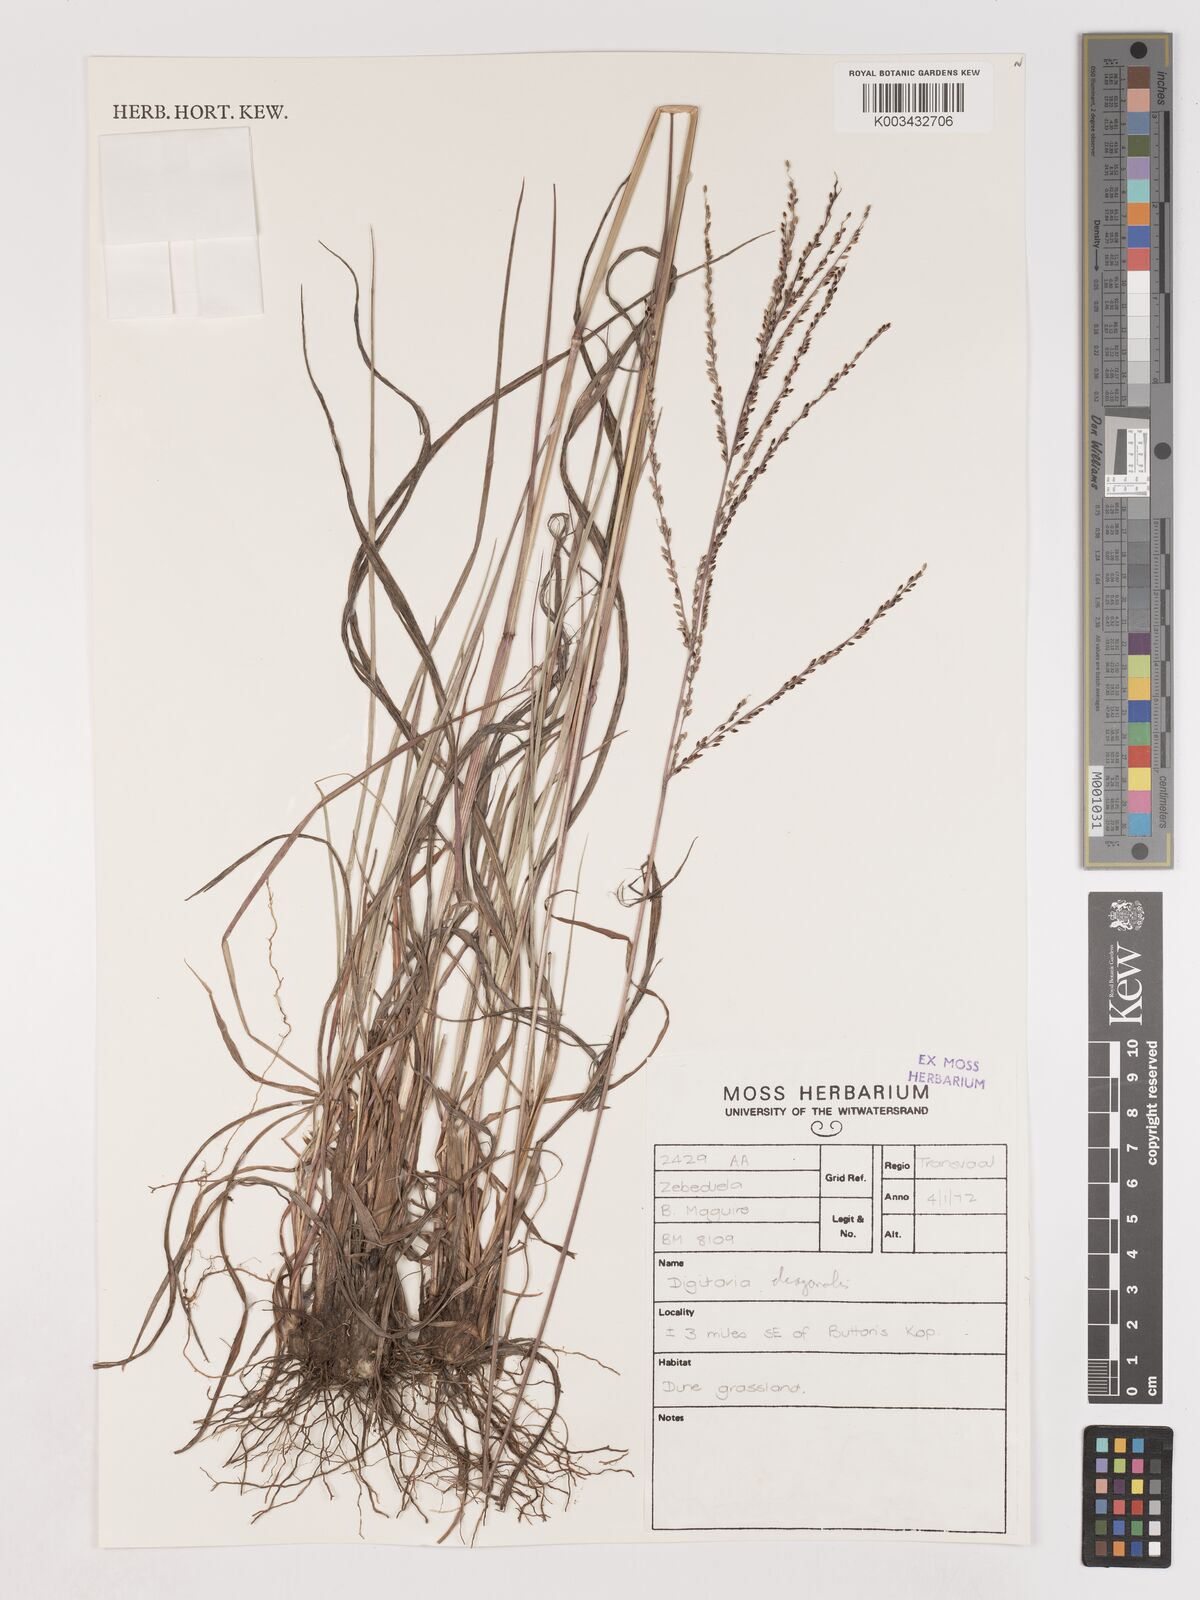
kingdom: Plantae
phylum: Tracheophyta
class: Liliopsida
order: Poales
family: Poaceae
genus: Digitaria
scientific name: Digitaria diagonalis
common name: Brown-seed finger grass
